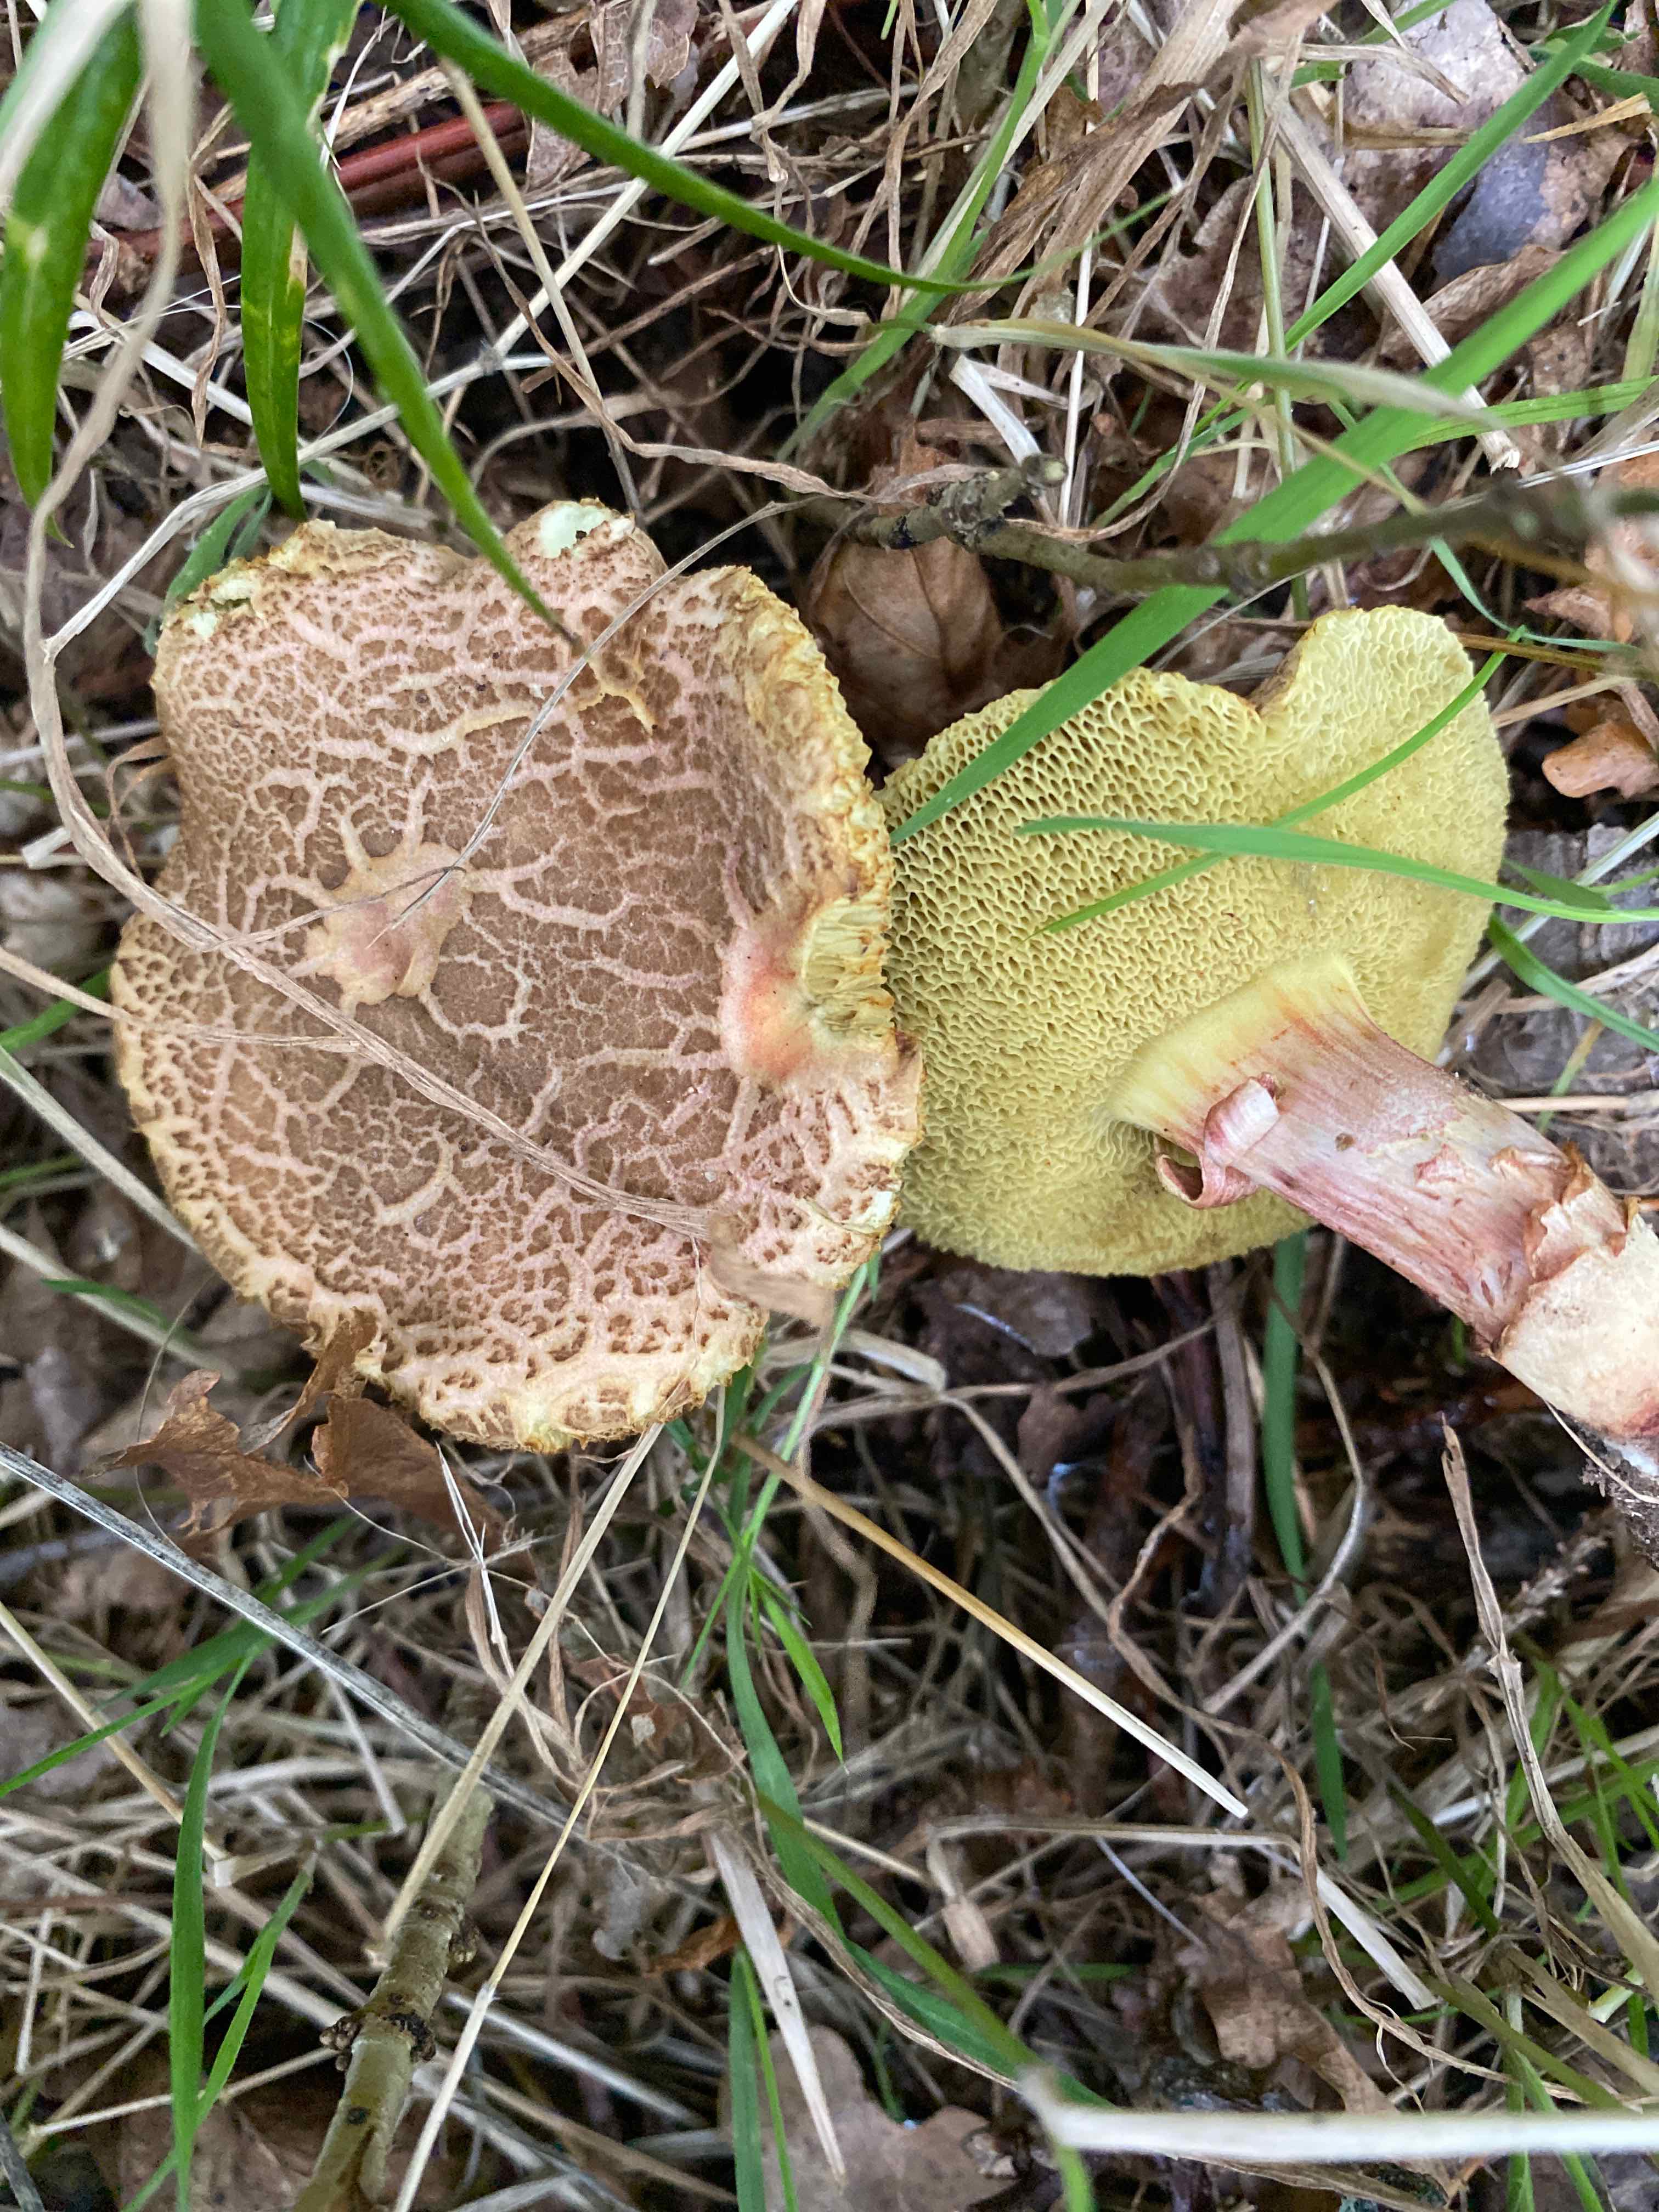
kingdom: Fungi
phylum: Basidiomycota
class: Agaricomycetes
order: Boletales
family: Boletaceae
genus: Xerocomellus
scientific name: Xerocomellus porosporus
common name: hvidsprukken rørhat
